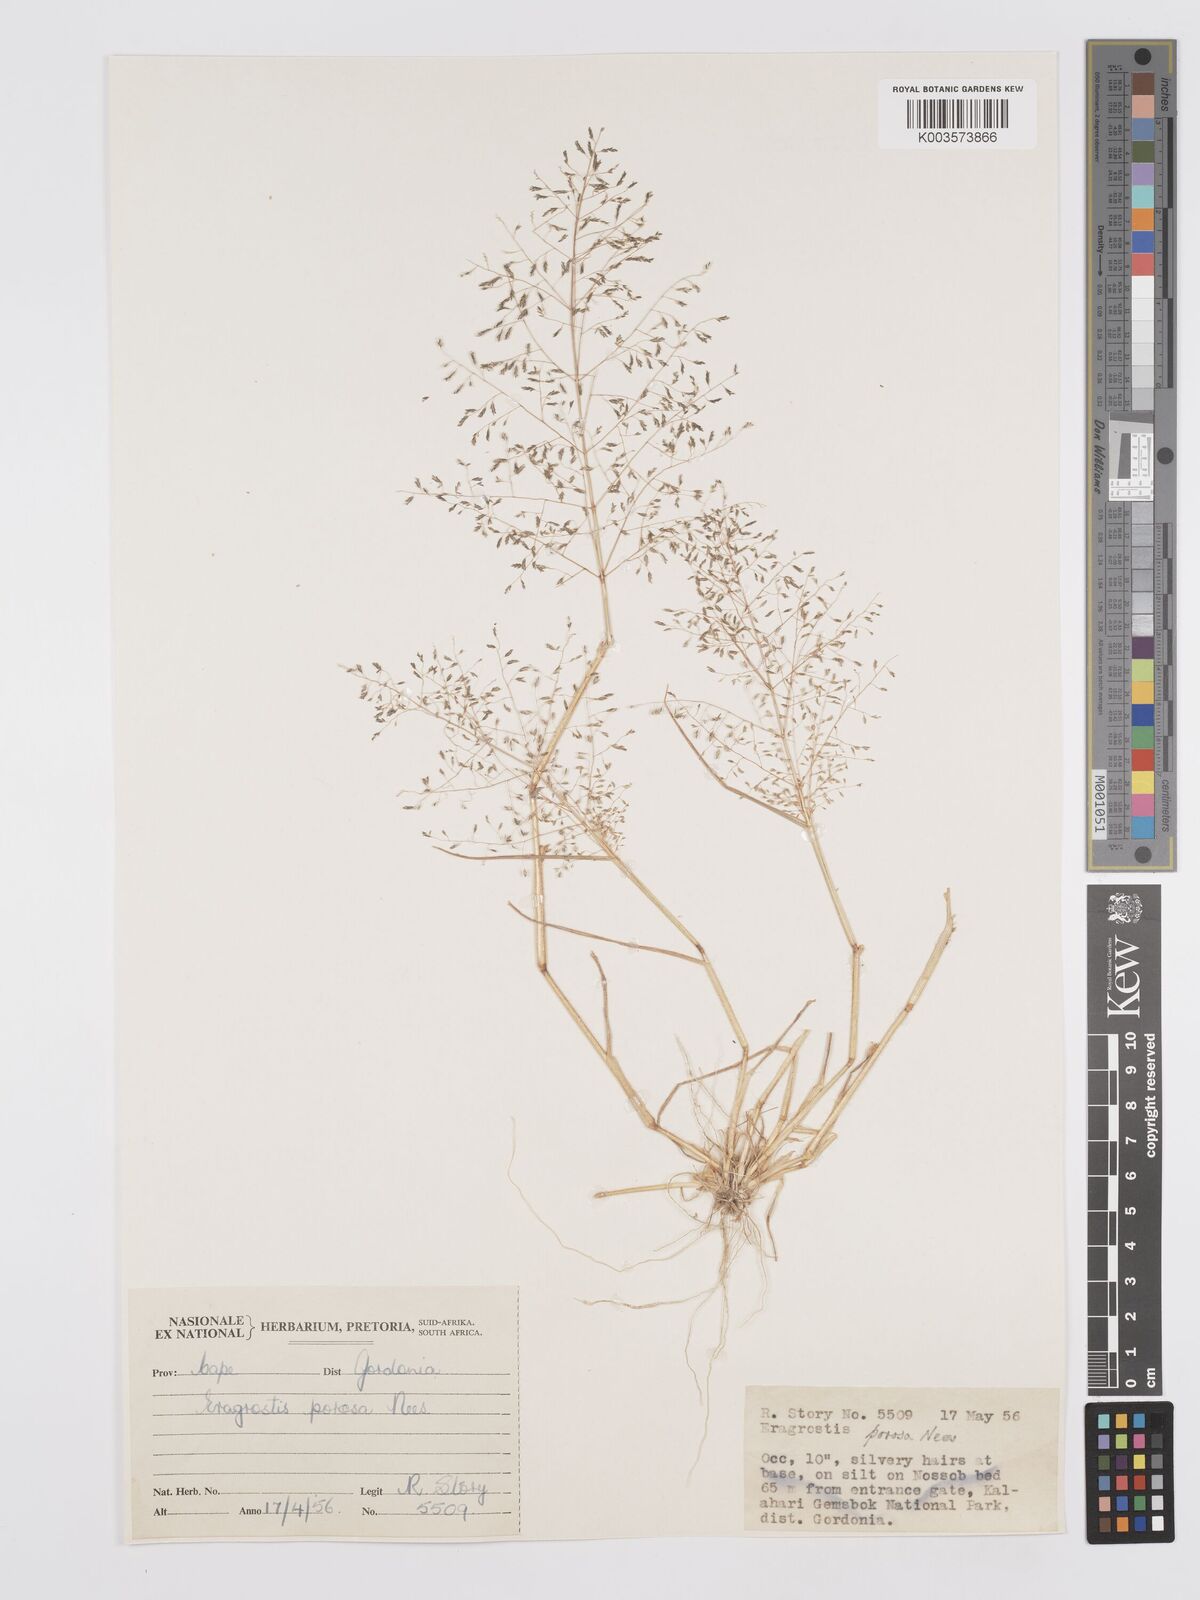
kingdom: Plantae
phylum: Tracheophyta
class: Liliopsida
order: Poales
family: Poaceae
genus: Eragrostis
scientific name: Eragrostis porosa
